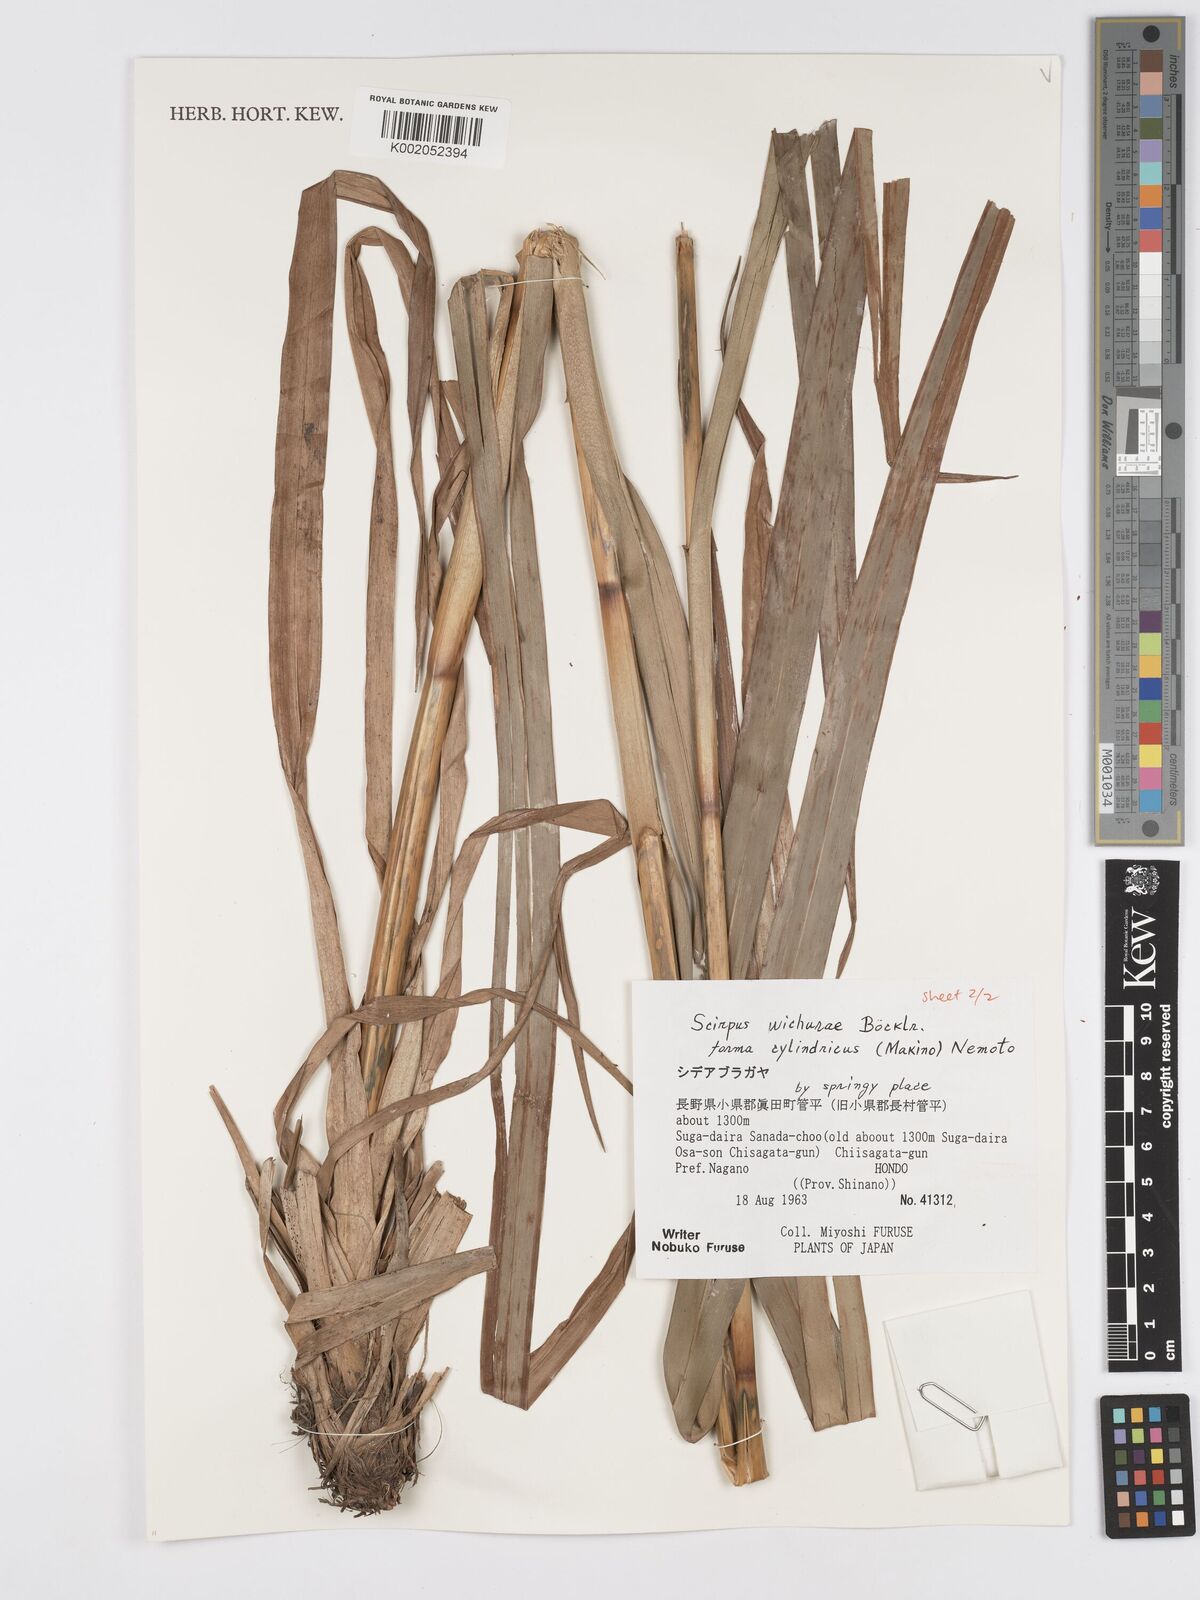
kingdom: Plantae
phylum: Tracheophyta
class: Liliopsida
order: Poales
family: Cyperaceae
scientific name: Cyperaceae
